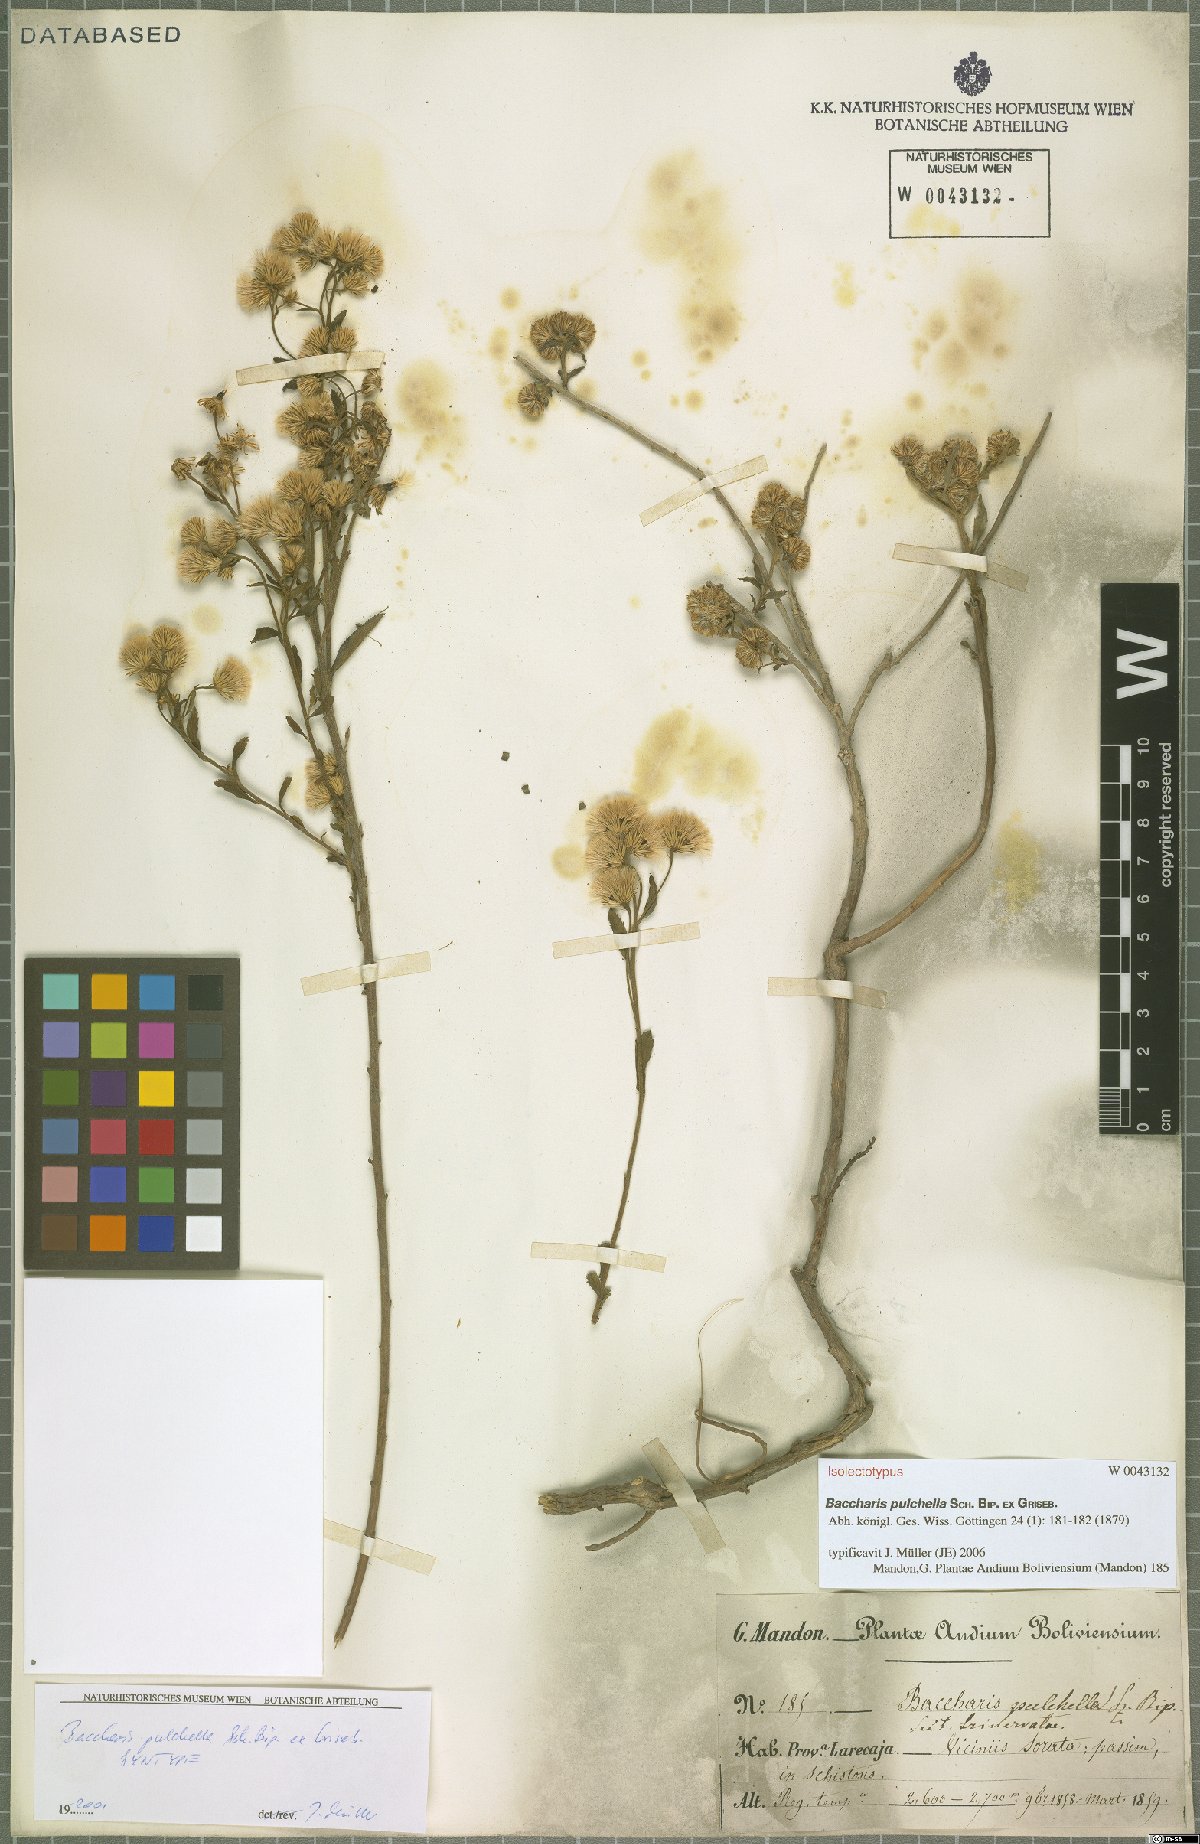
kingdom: Plantae
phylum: Tracheophyta
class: Magnoliopsida
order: Asterales
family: Asteraceae
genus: Baccharis
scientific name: Baccharis pulchella
